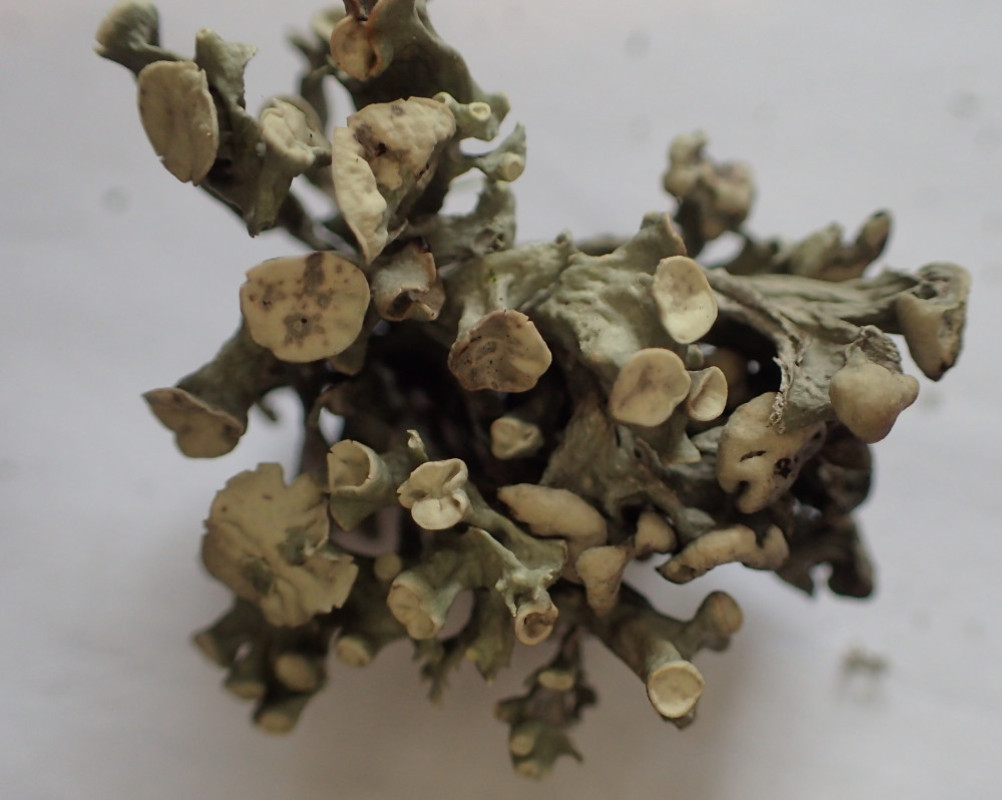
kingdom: Fungi
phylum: Ascomycota
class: Lecanoromycetes
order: Lecanorales
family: Ramalinaceae
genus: Ramalina
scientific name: Ramalina fastigiata
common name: tue-grenlav
